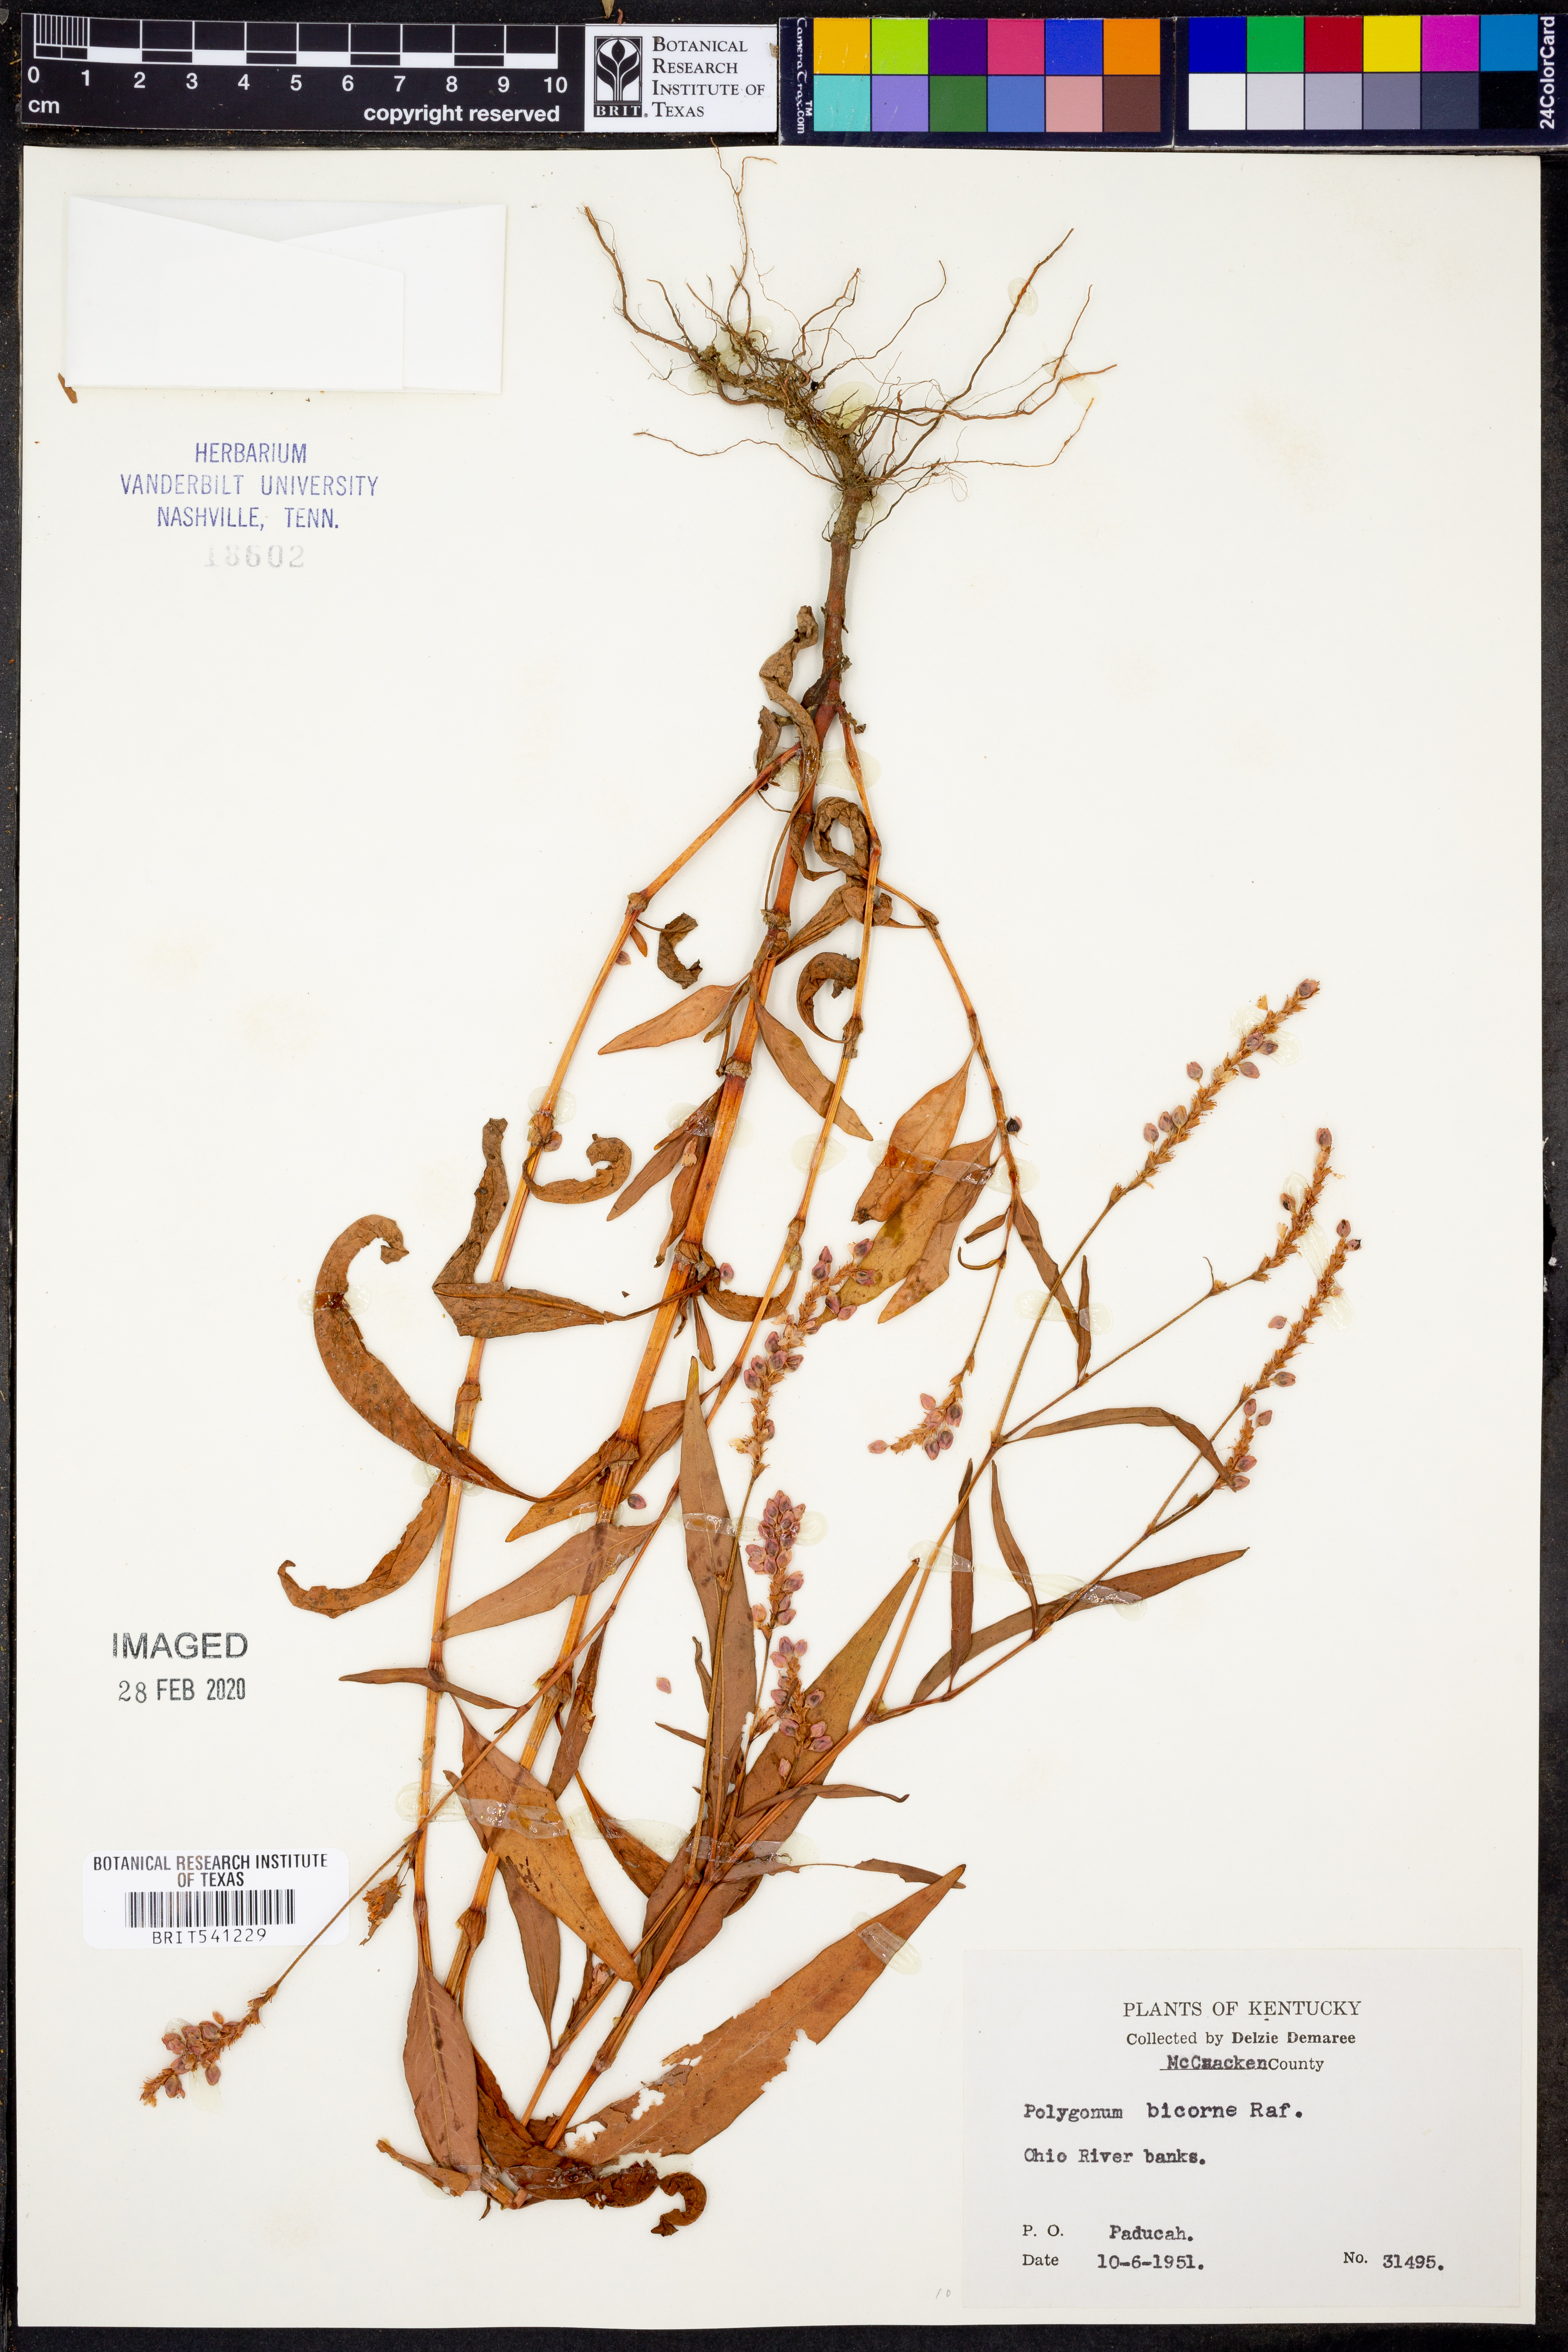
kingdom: Plantae
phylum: Tracheophyta
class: Magnoliopsida
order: Caryophyllales
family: Polygonaceae
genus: Persicaria
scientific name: Persicaria bicornis
